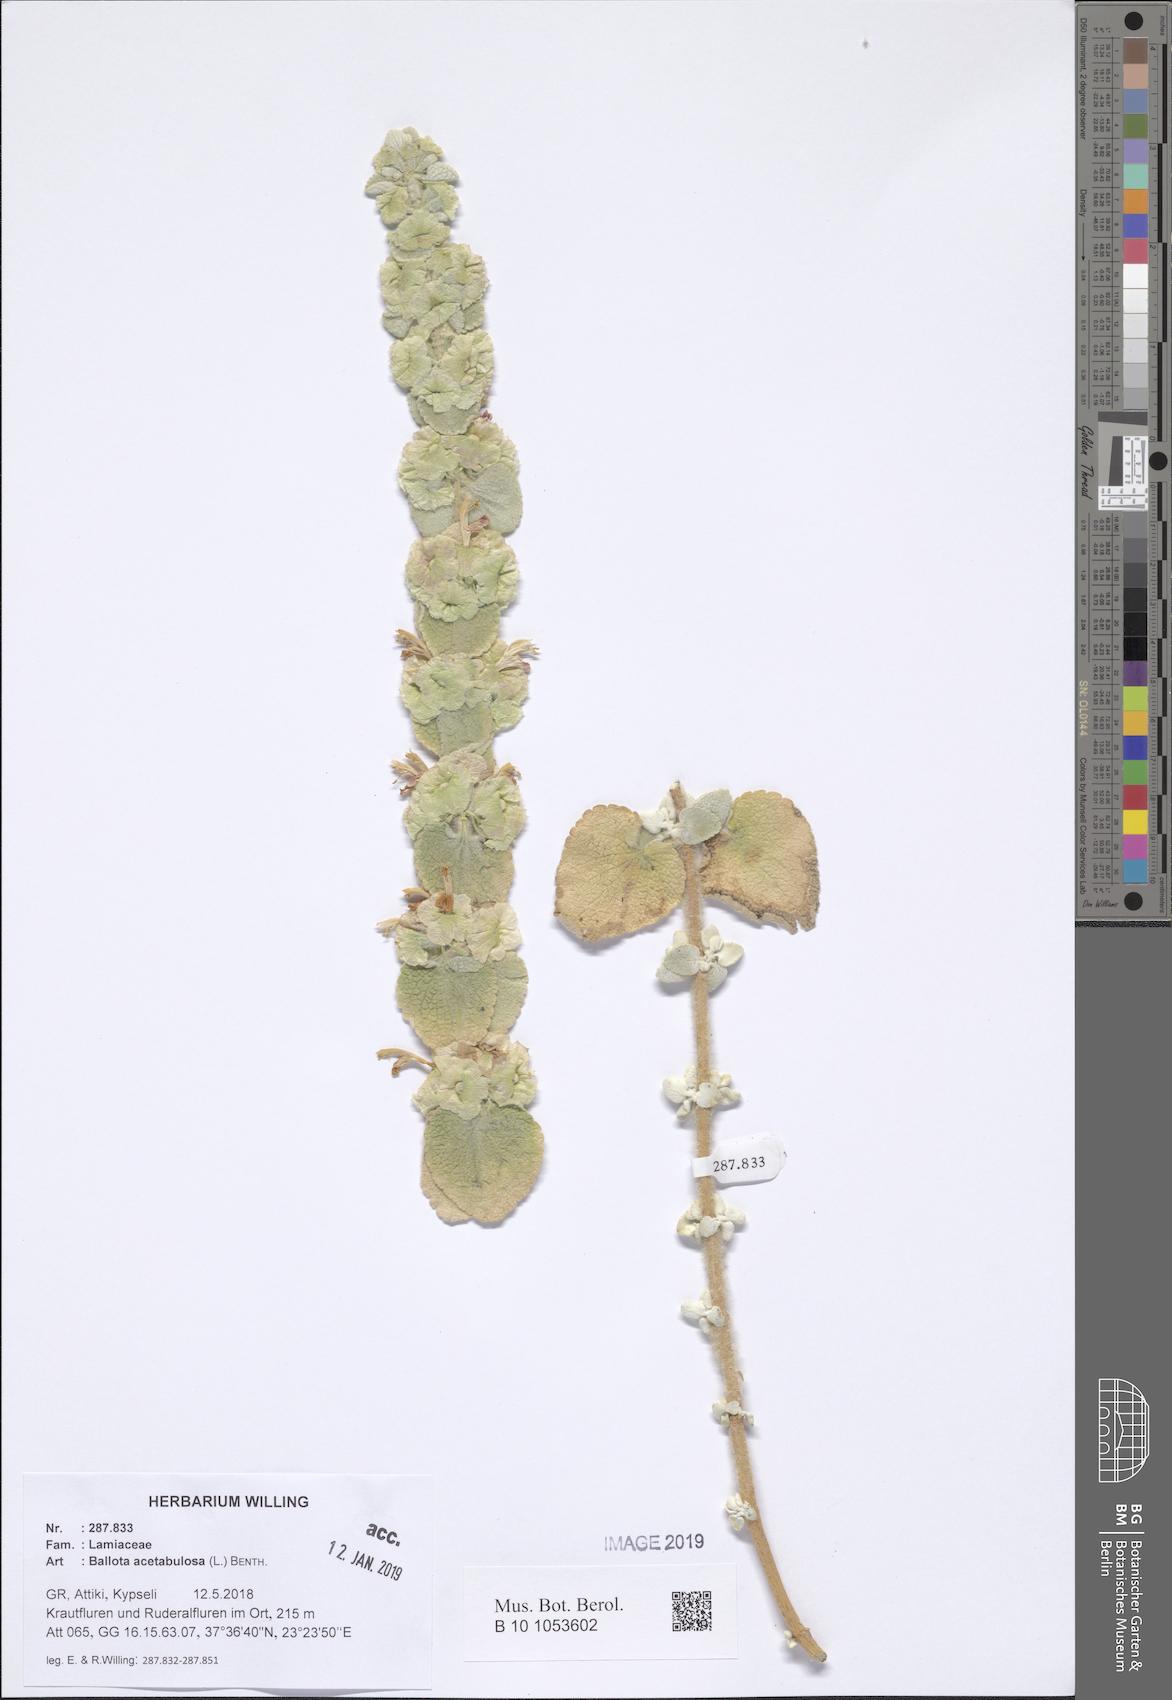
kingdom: Plantae
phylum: Tracheophyta
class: Magnoliopsida
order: Lamiales
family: Lamiaceae
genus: Pseudodictamnus
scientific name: Pseudodictamnus acetabulosus
